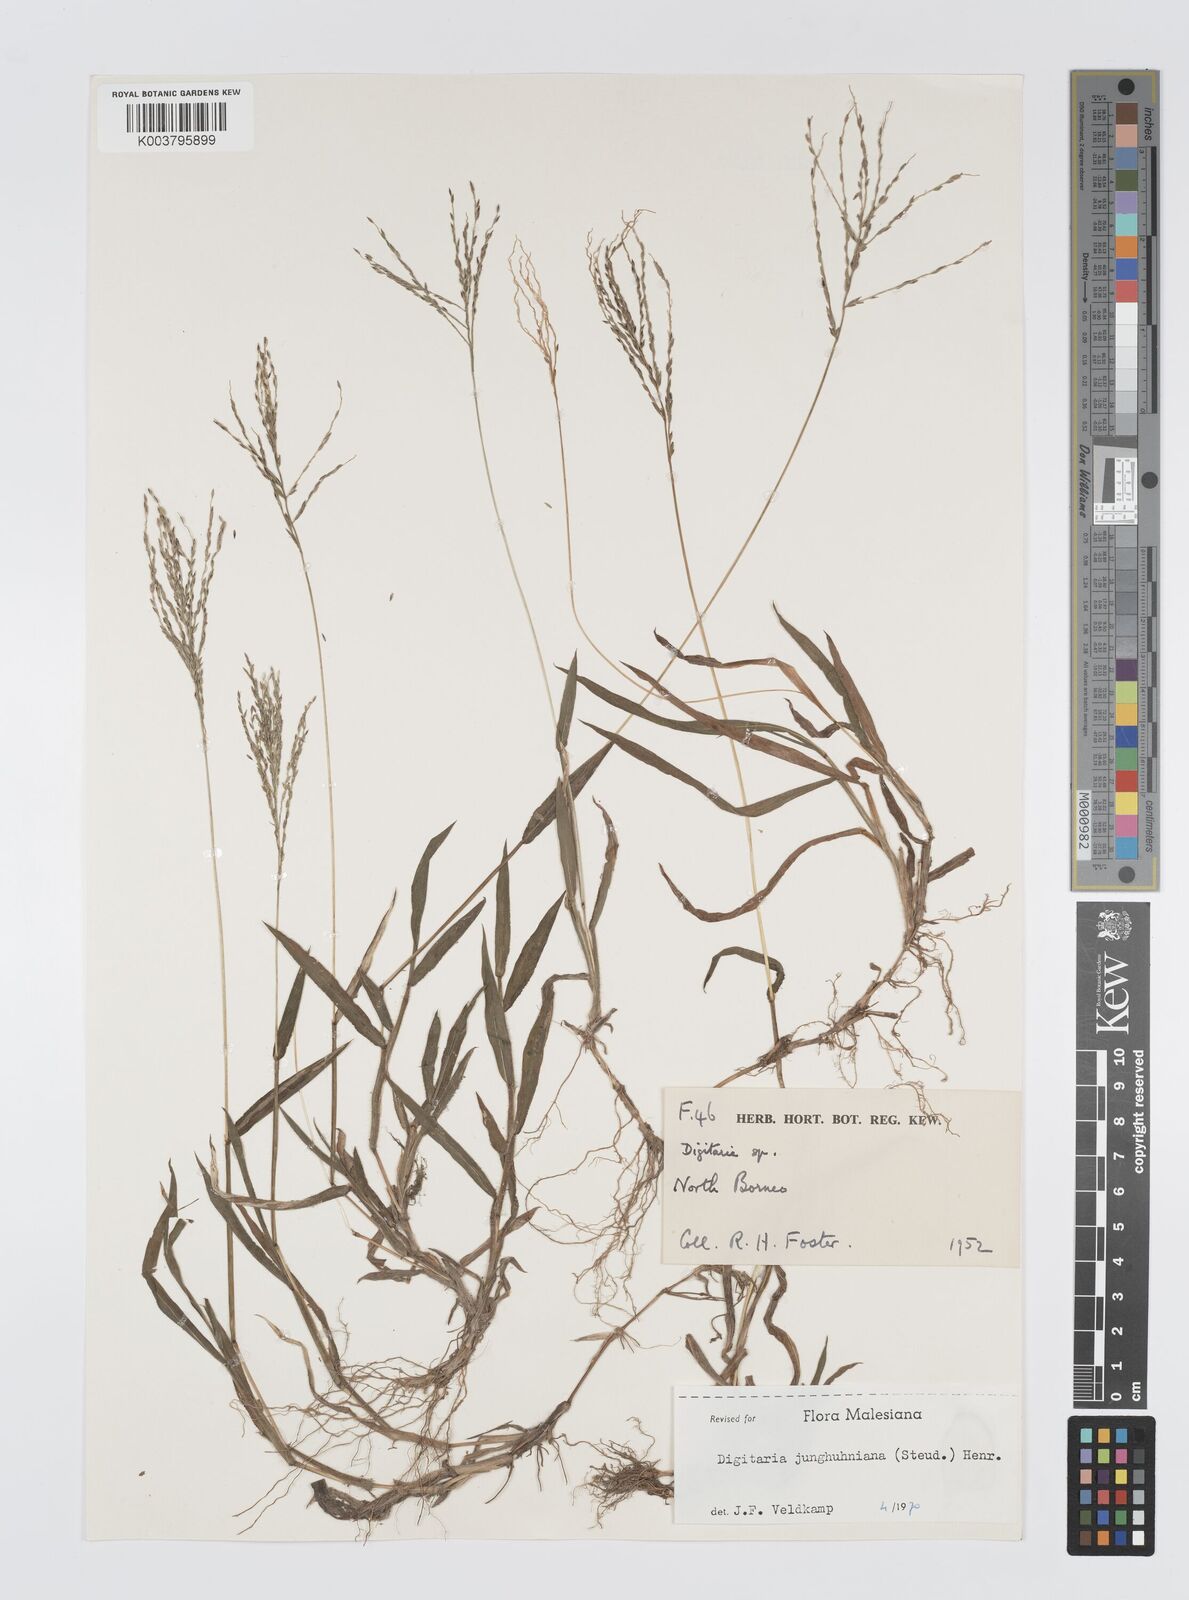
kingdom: Plantae
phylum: Tracheophyta
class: Liliopsida
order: Poales
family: Poaceae
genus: Digitaria
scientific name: Digitaria junghuhniana
